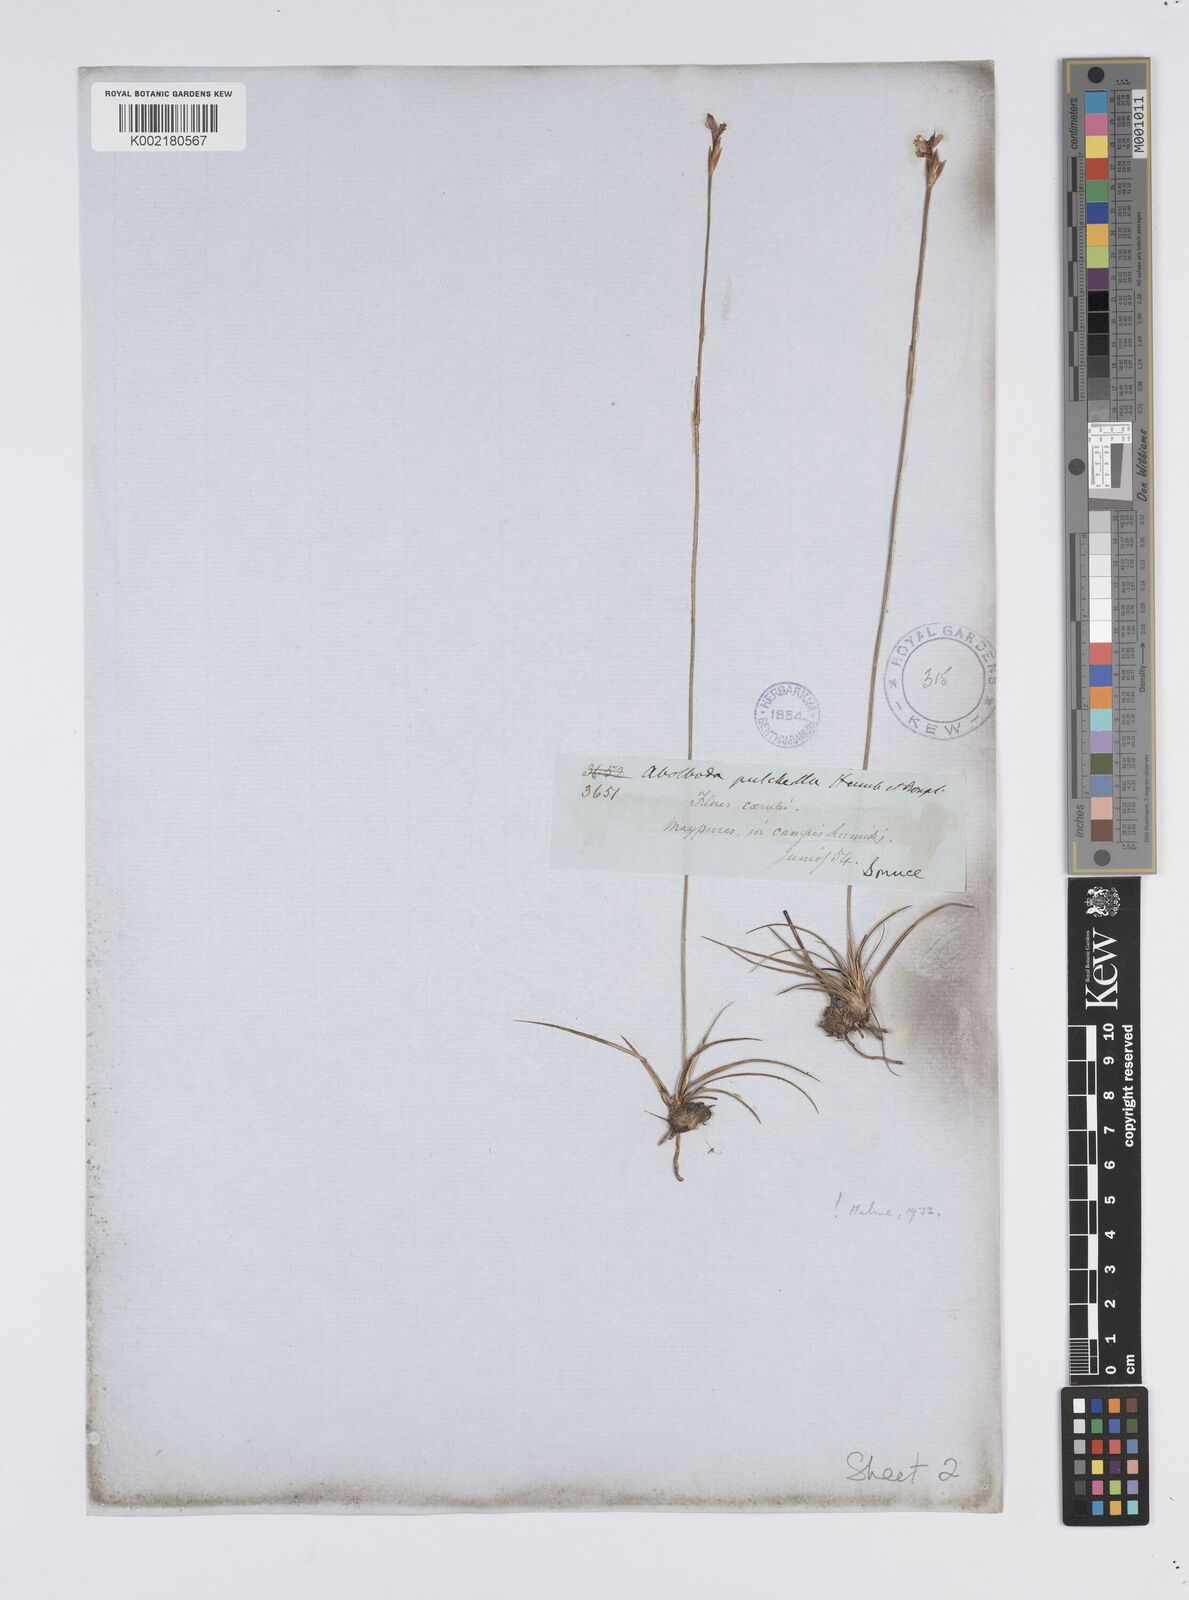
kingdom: Plantae
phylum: Tracheophyta
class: Liliopsida
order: Poales
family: Xyridaceae
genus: Abolboda
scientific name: Abolboda pulchella
